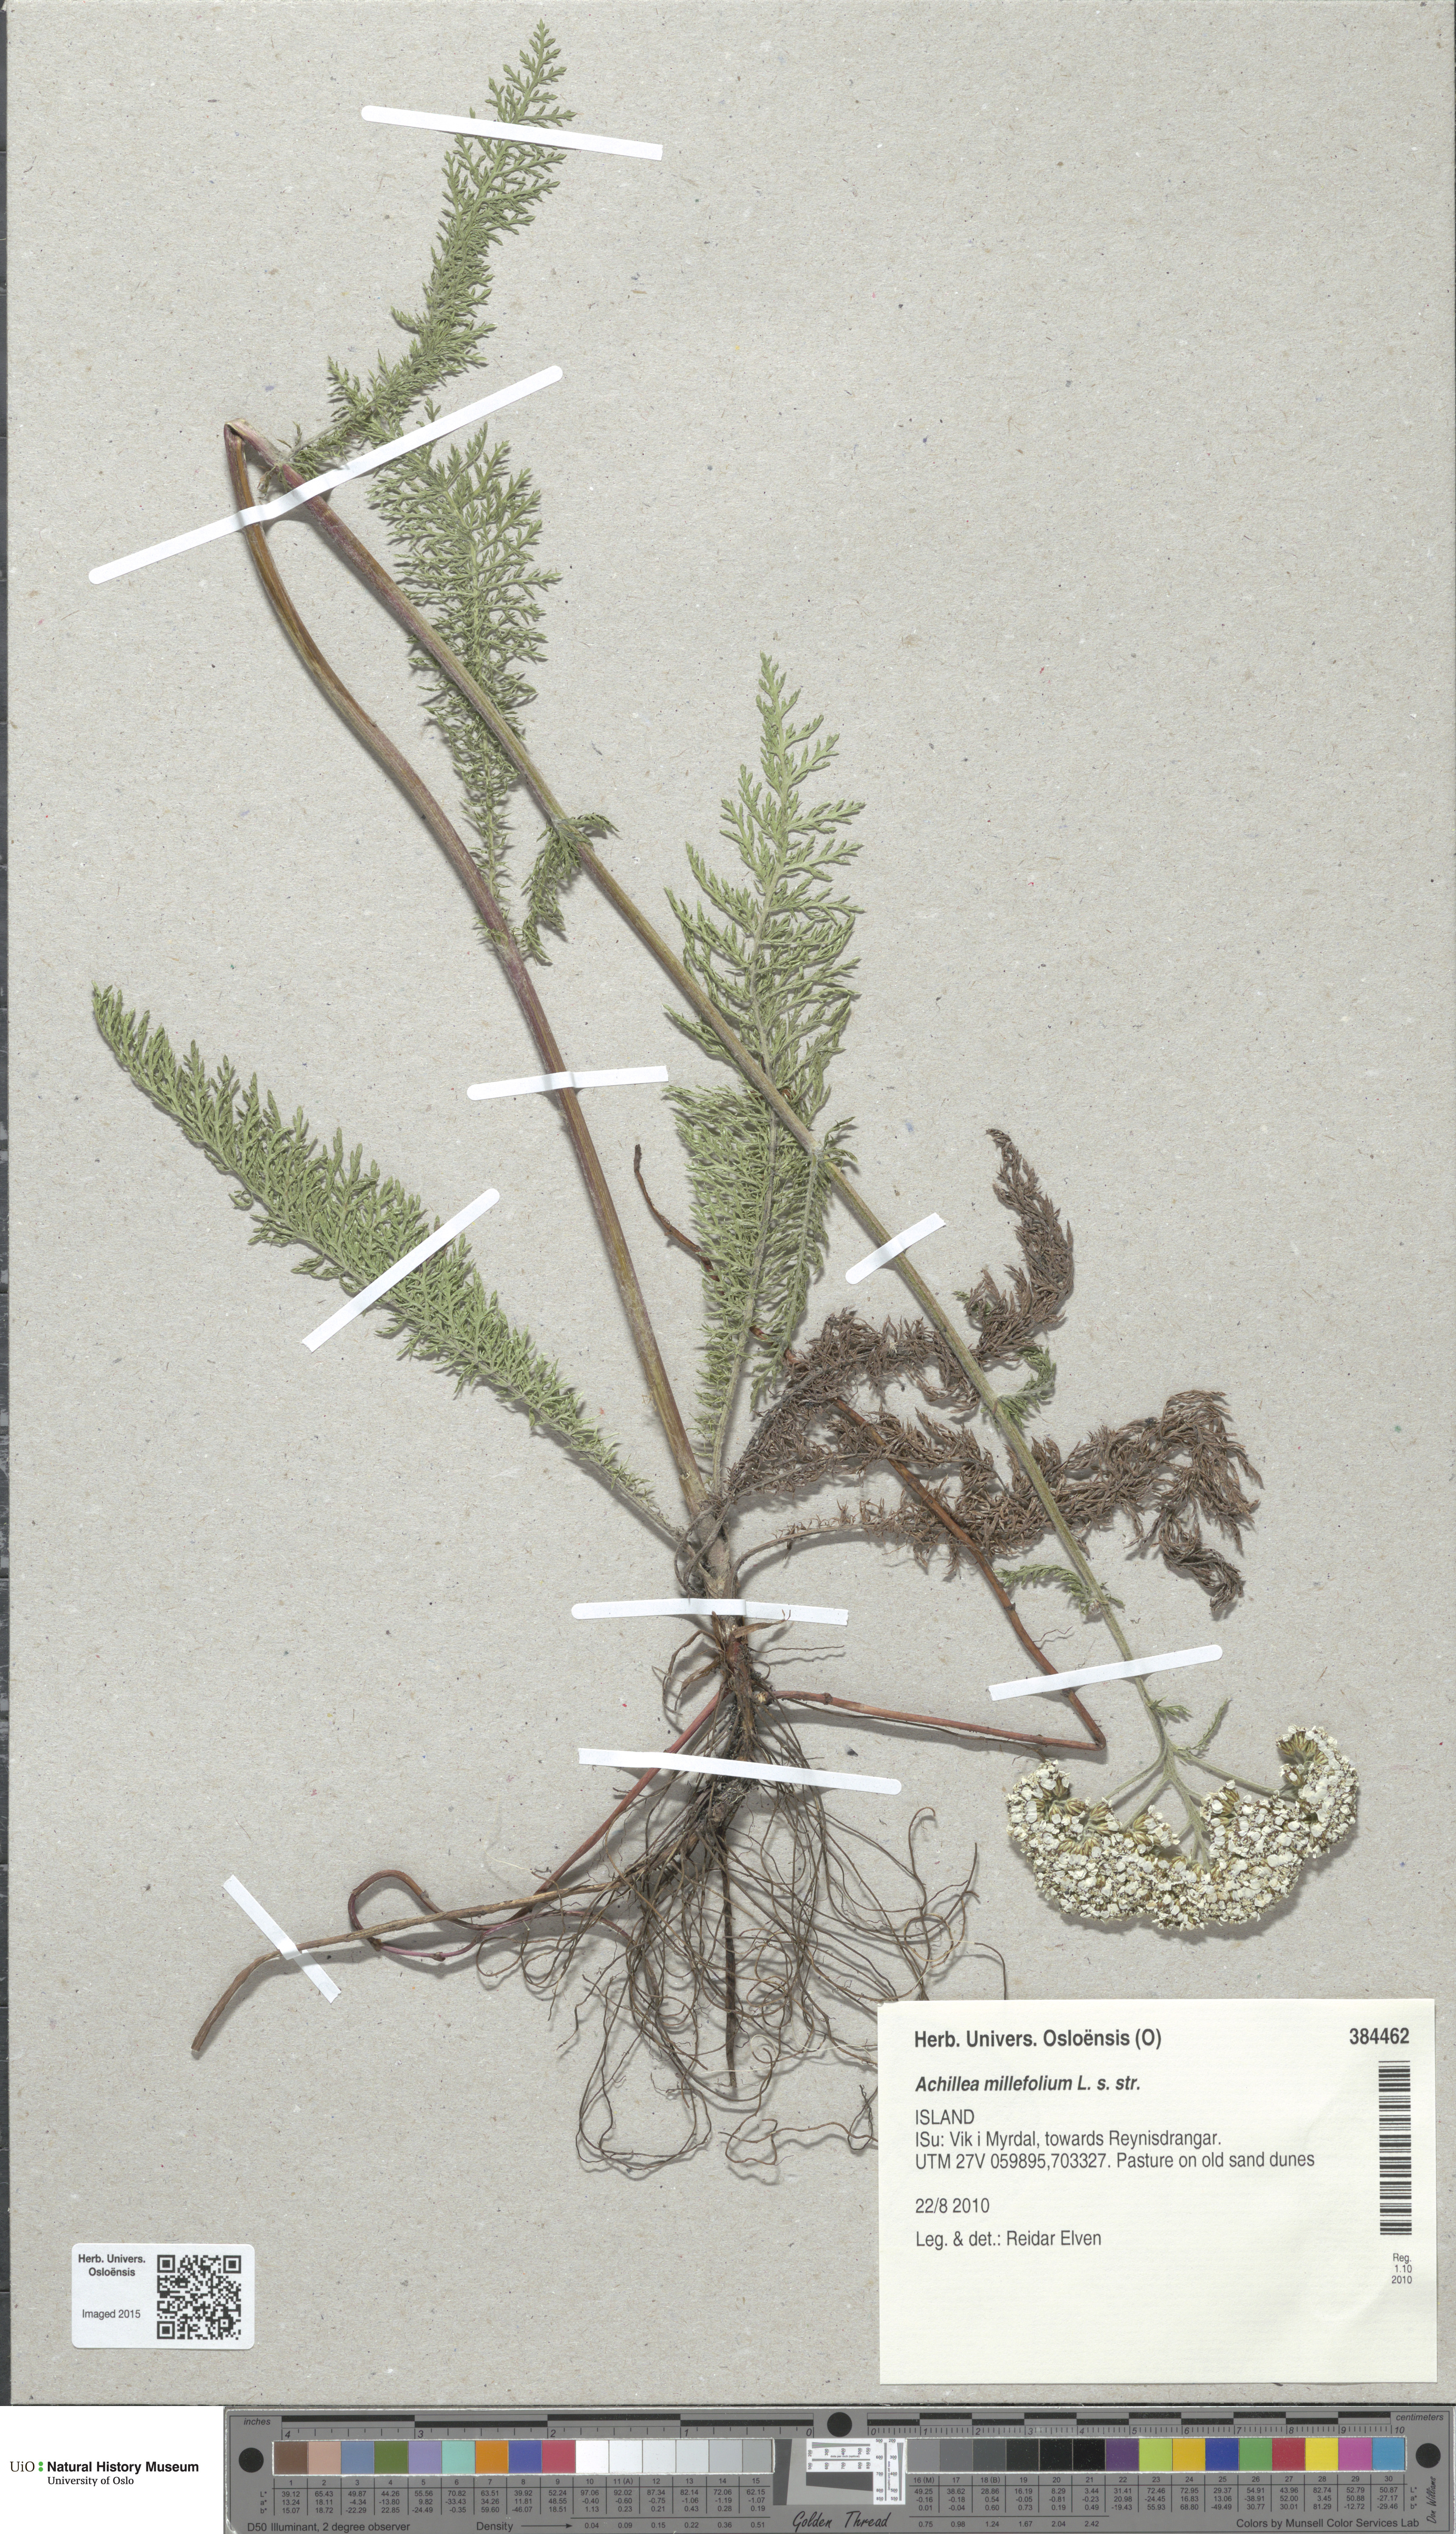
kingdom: Plantae
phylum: Tracheophyta
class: Magnoliopsida
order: Asterales
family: Asteraceae
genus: Achillea
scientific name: Achillea millefolium
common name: Yarrow
